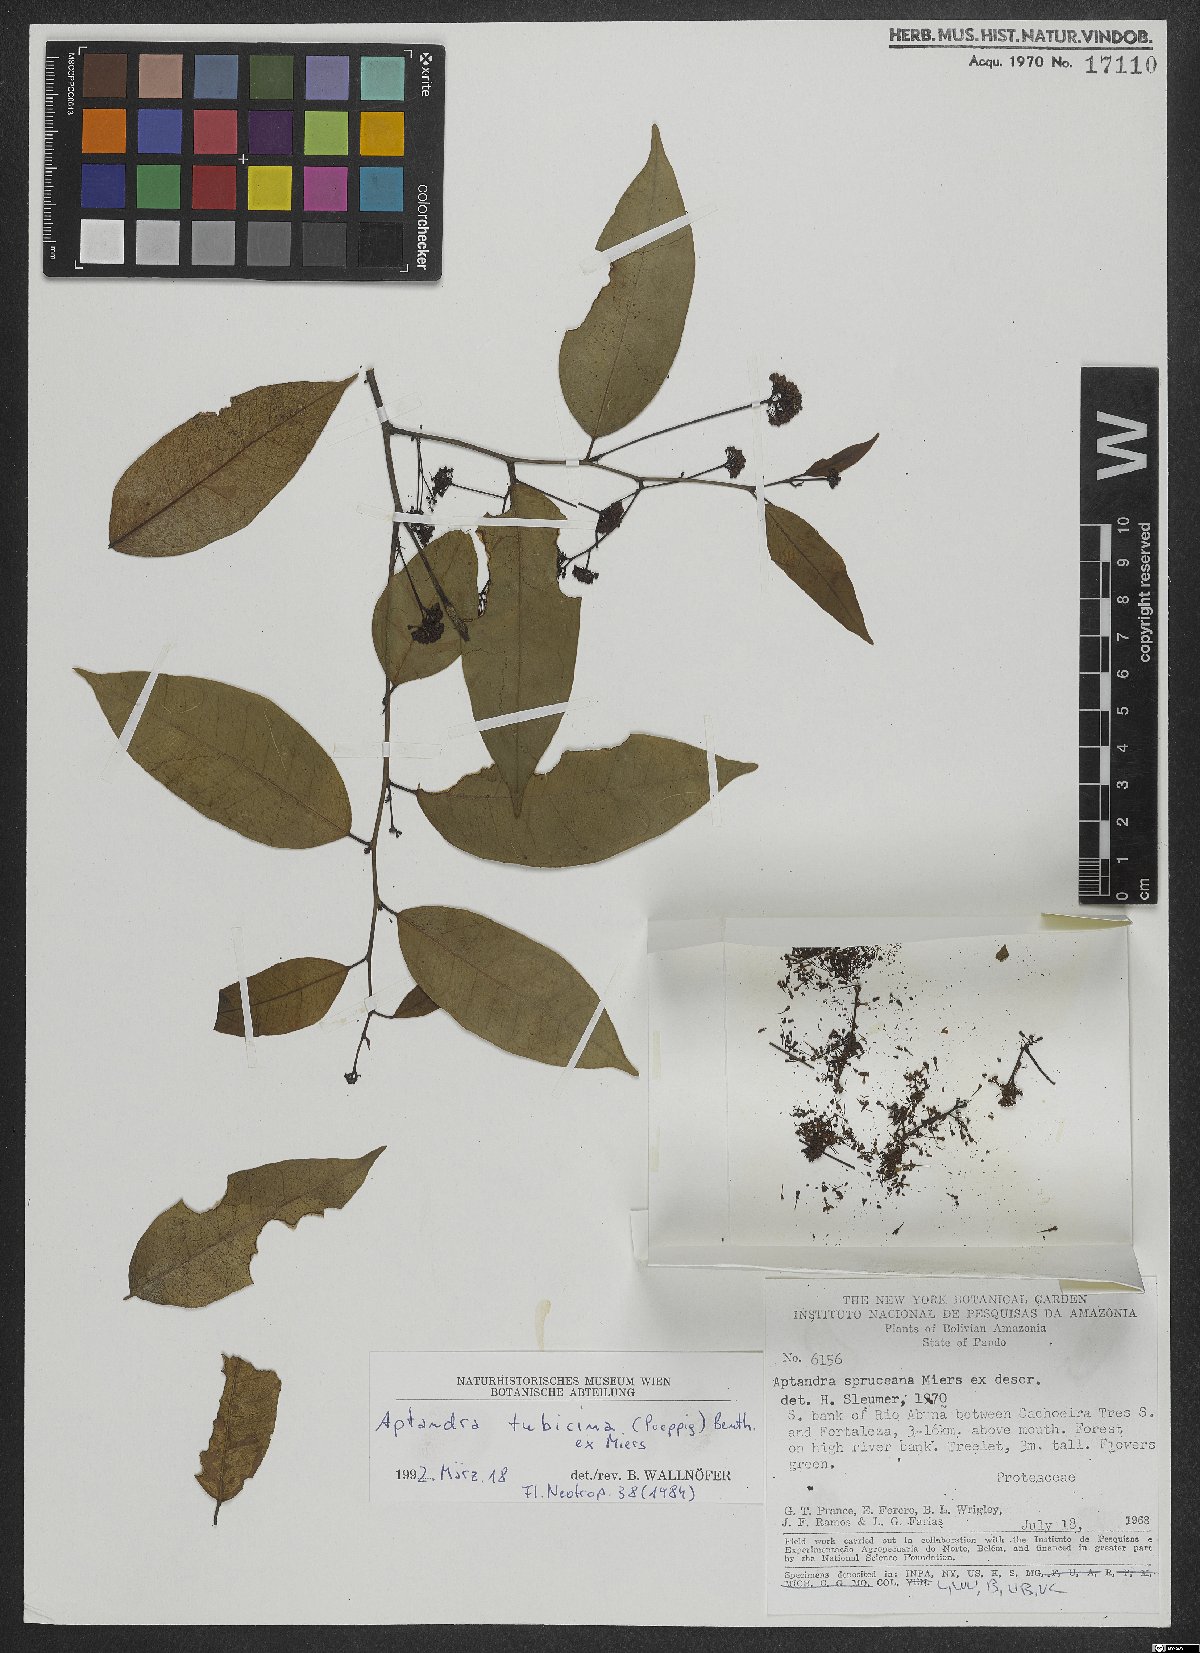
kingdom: Plantae
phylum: Tracheophyta
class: Magnoliopsida
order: Santalales
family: Aptandraceae
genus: Aptandra
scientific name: Aptandra tubicina
